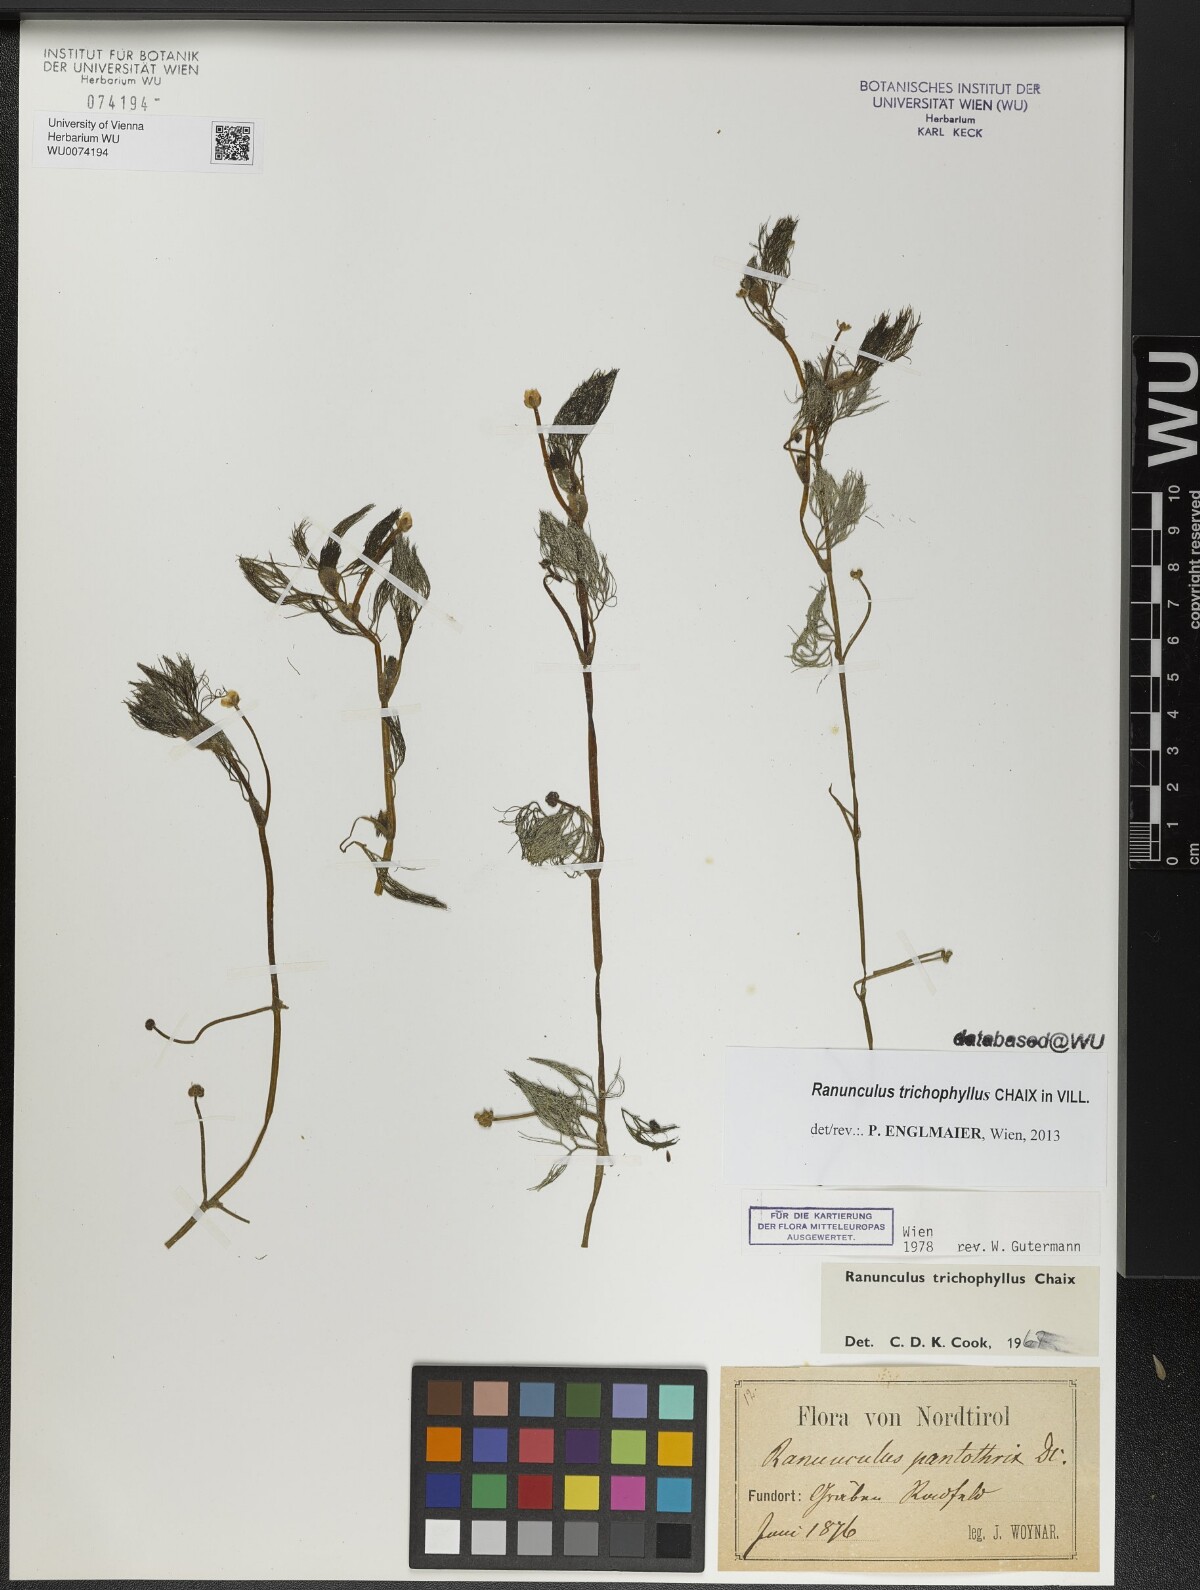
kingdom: Plantae
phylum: Tracheophyta
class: Magnoliopsida
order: Ranunculales
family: Ranunculaceae
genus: Ranunculus
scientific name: Ranunculus trichophyllus
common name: Thread-leaved water-crowfoot
